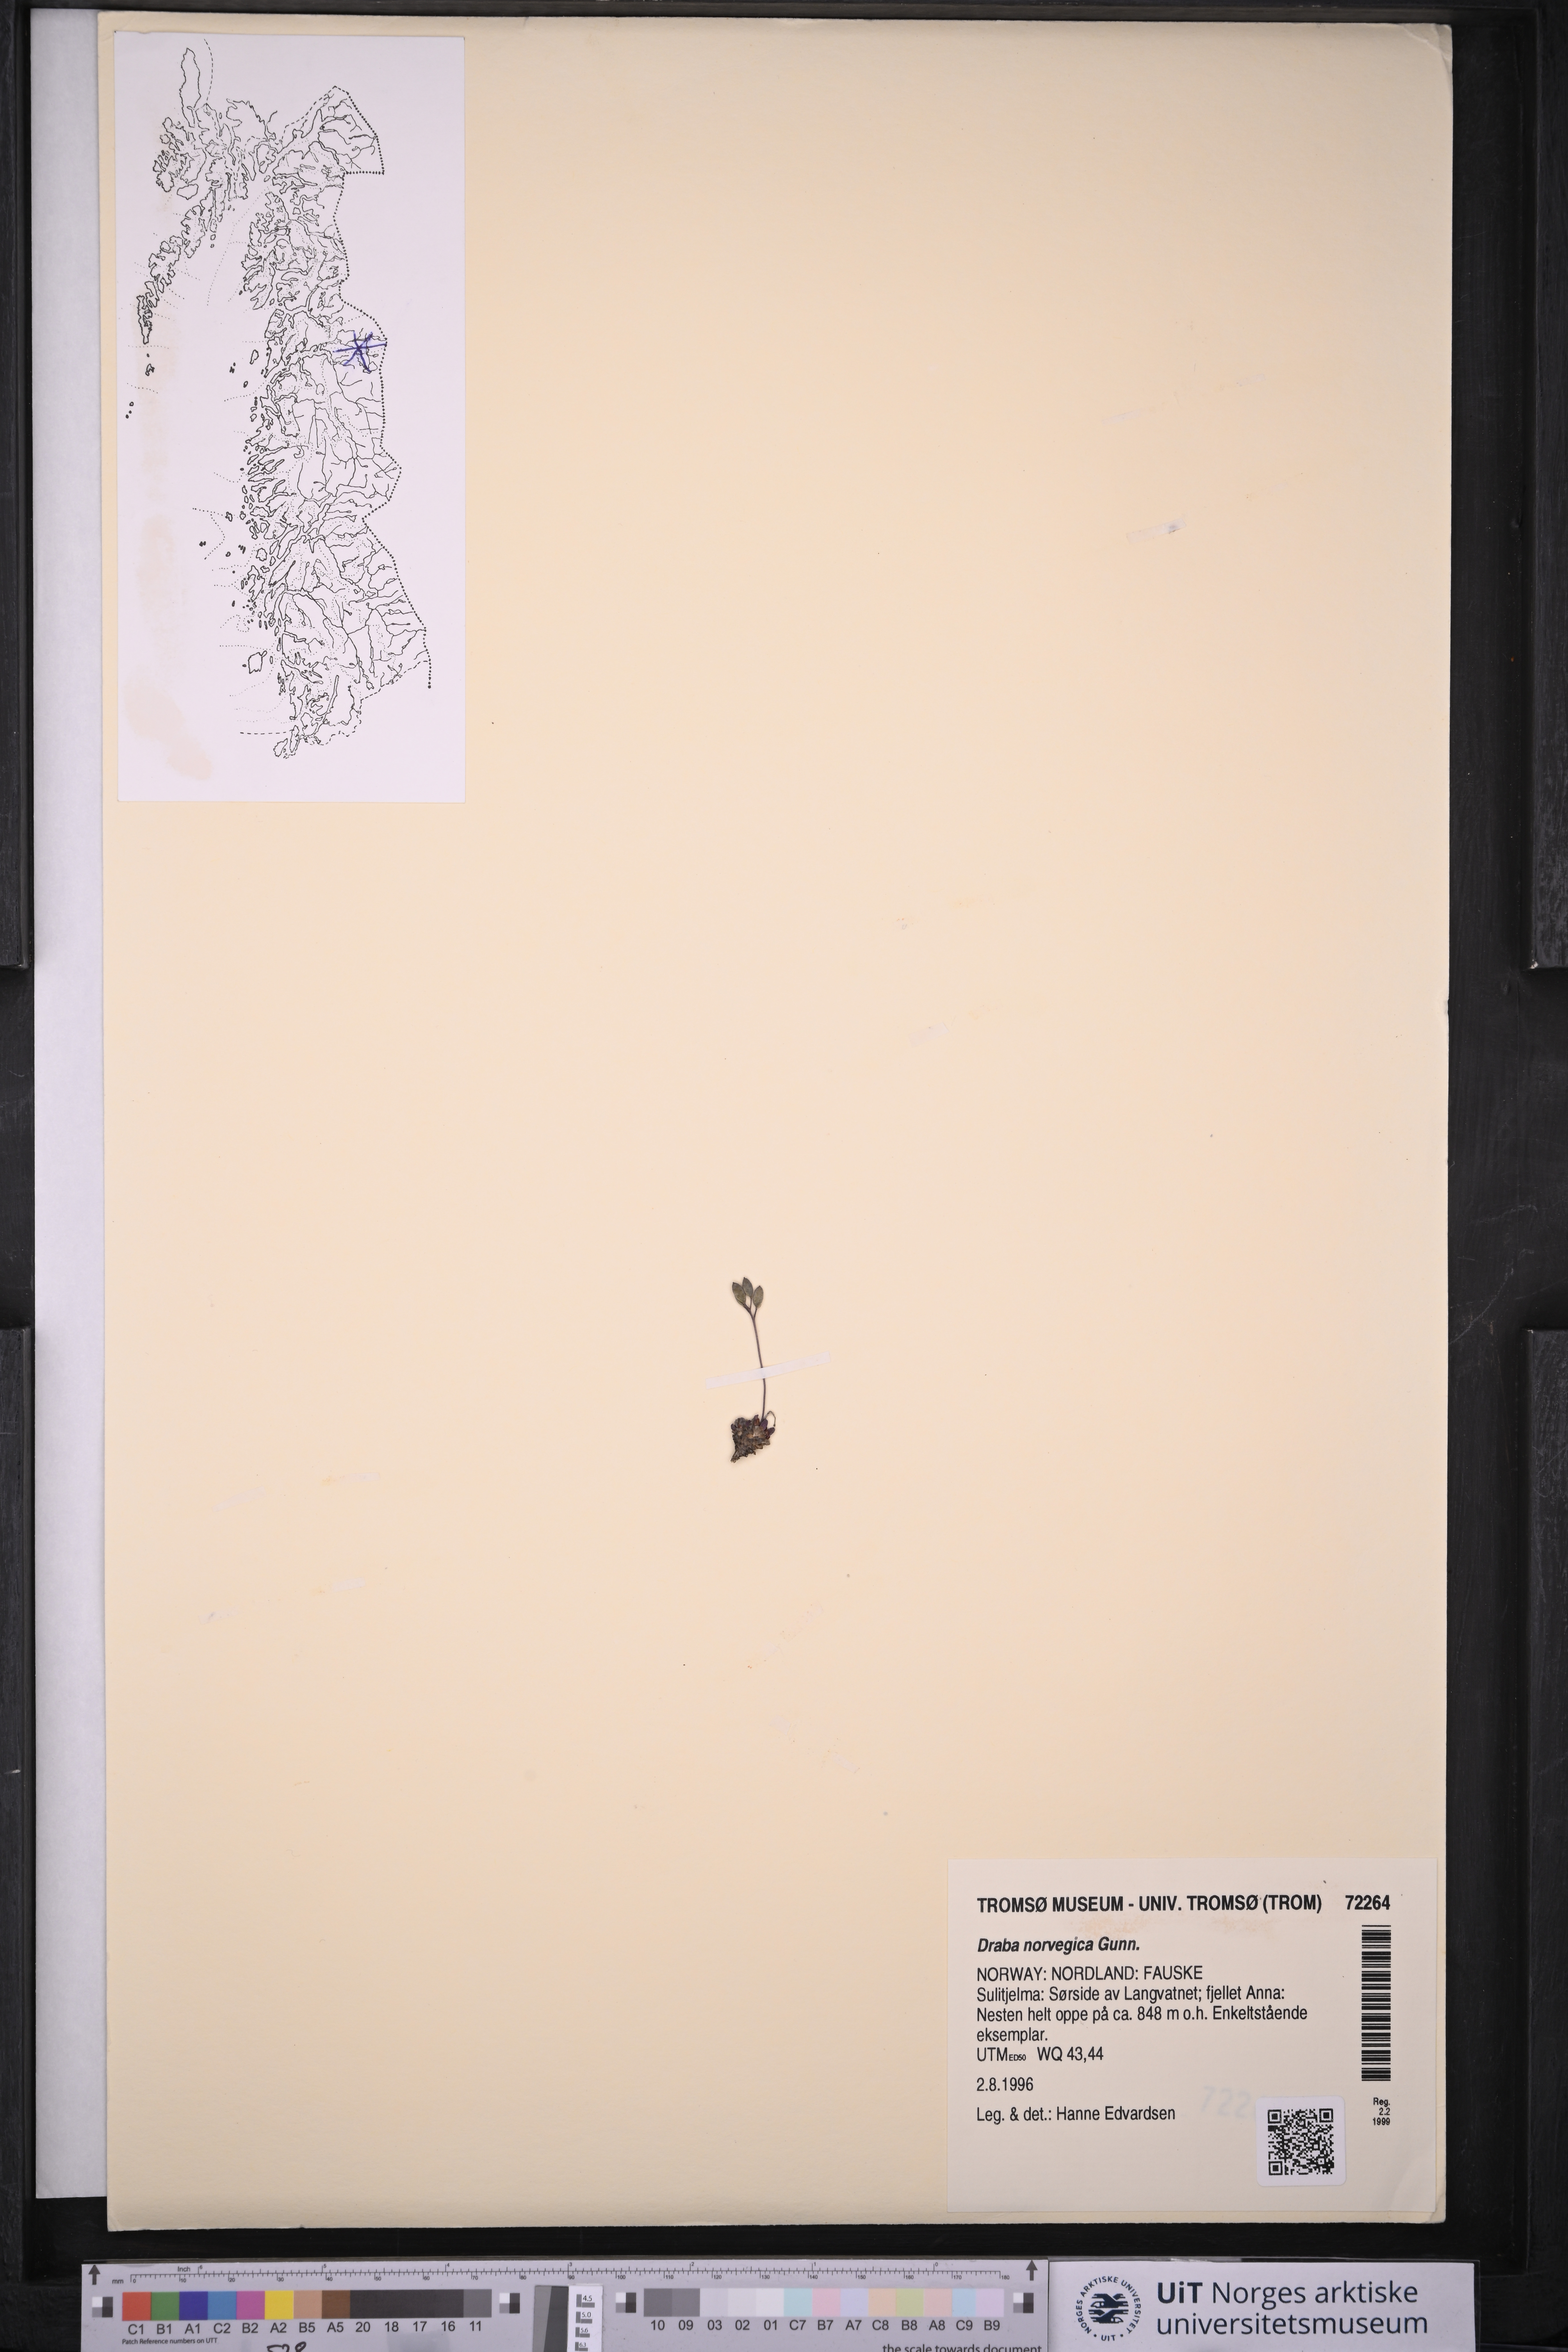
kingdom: Plantae
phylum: Tracheophyta
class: Magnoliopsida
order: Brassicales
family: Brassicaceae
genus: Draba
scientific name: Draba norvegica
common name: Rock whitlowgrass
